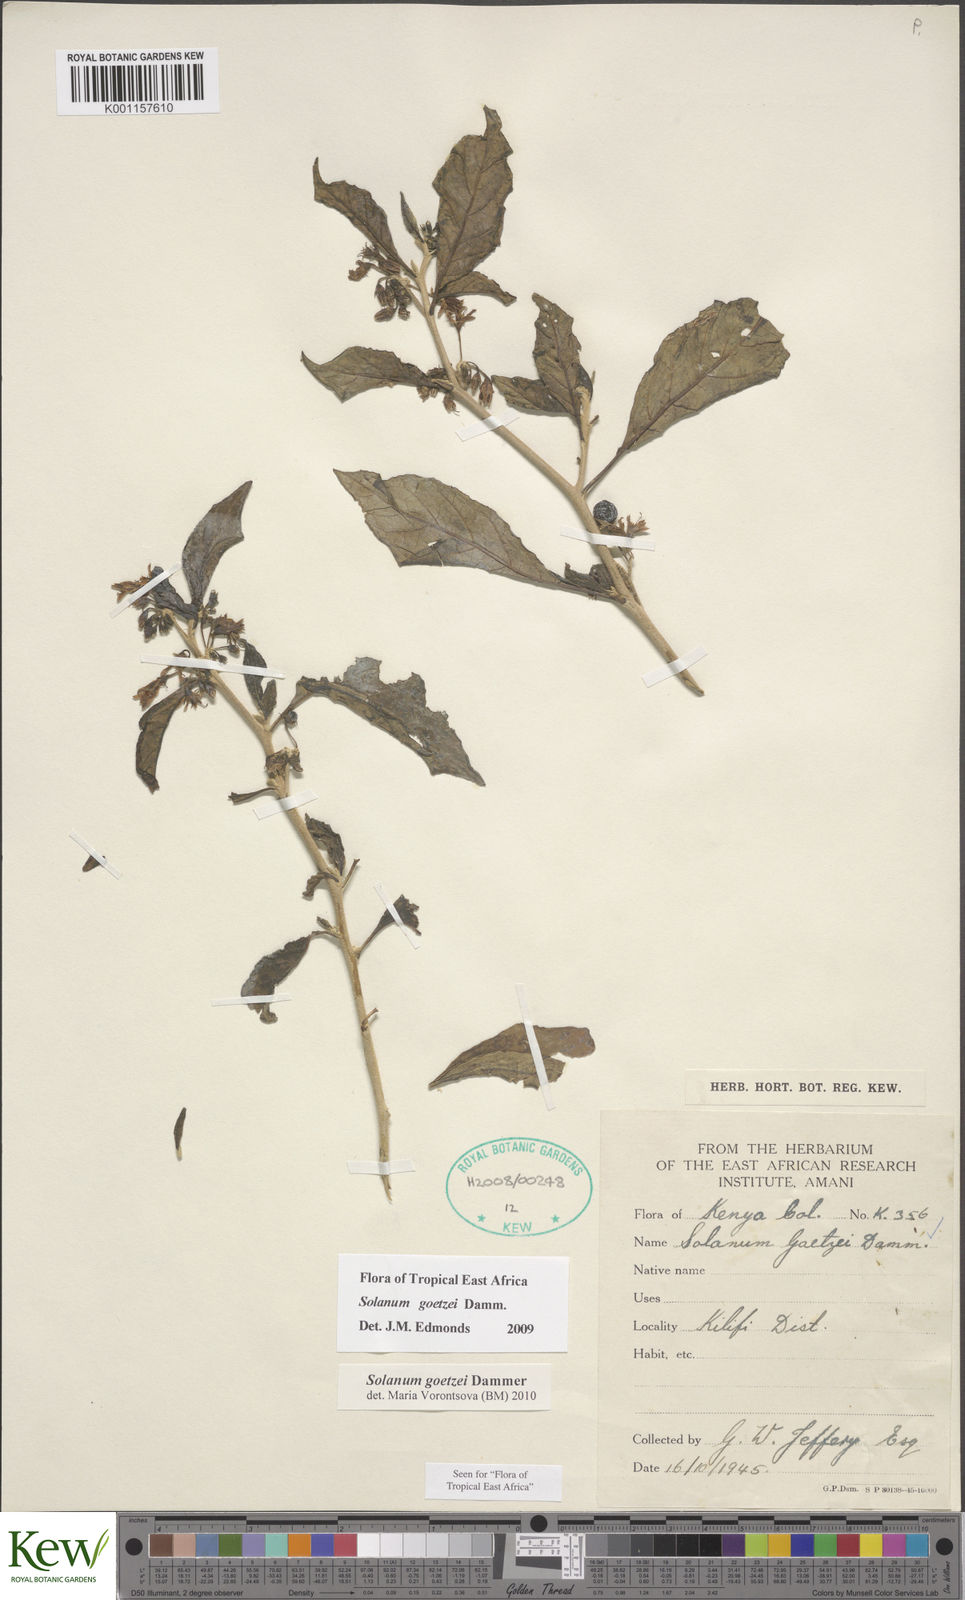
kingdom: Plantae
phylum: Tracheophyta
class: Magnoliopsida
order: Solanales
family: Solanaceae
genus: Solanum
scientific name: Solanum goetzei
